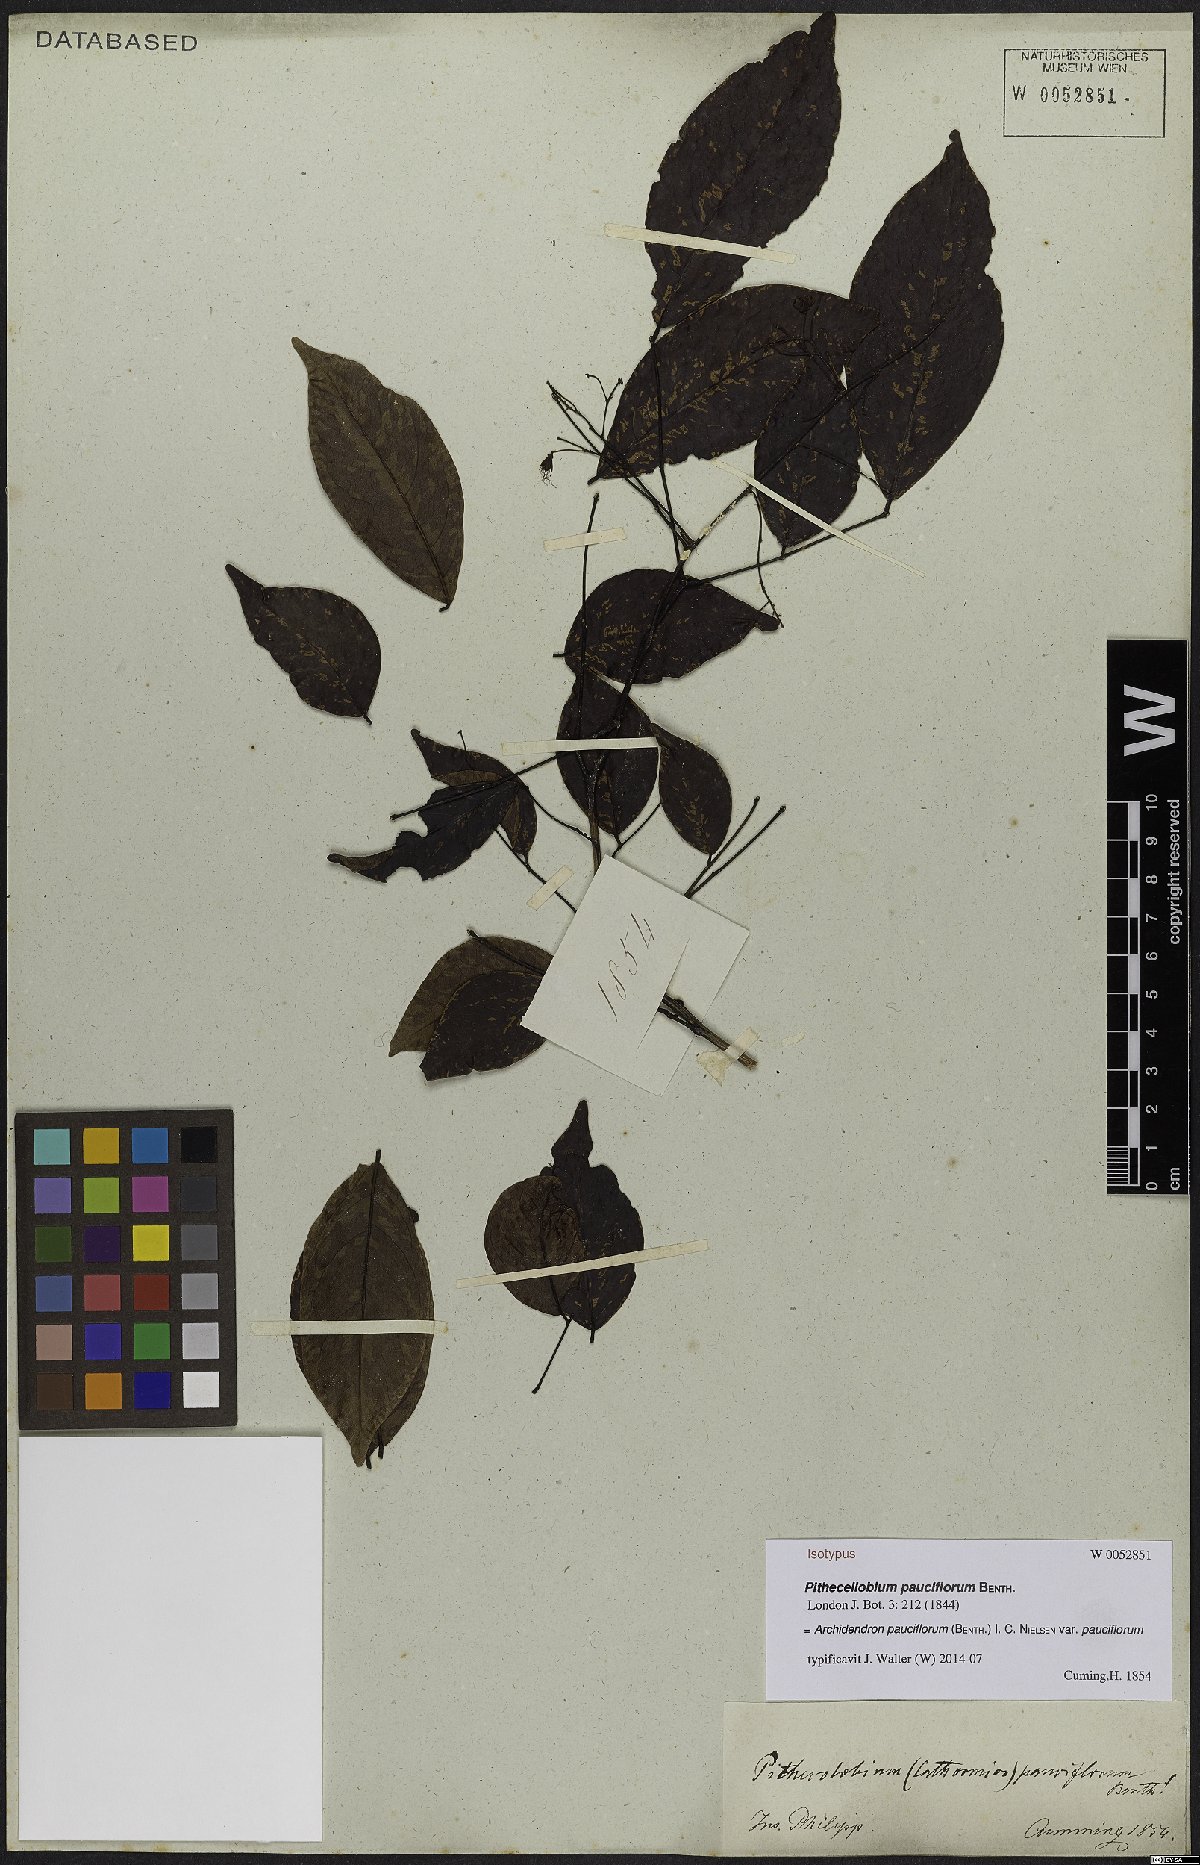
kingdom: Plantae
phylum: Tracheophyta
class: Magnoliopsida
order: Fabales
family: Fabaceae
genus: Archidendron
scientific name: Archidendron pauciflorum
